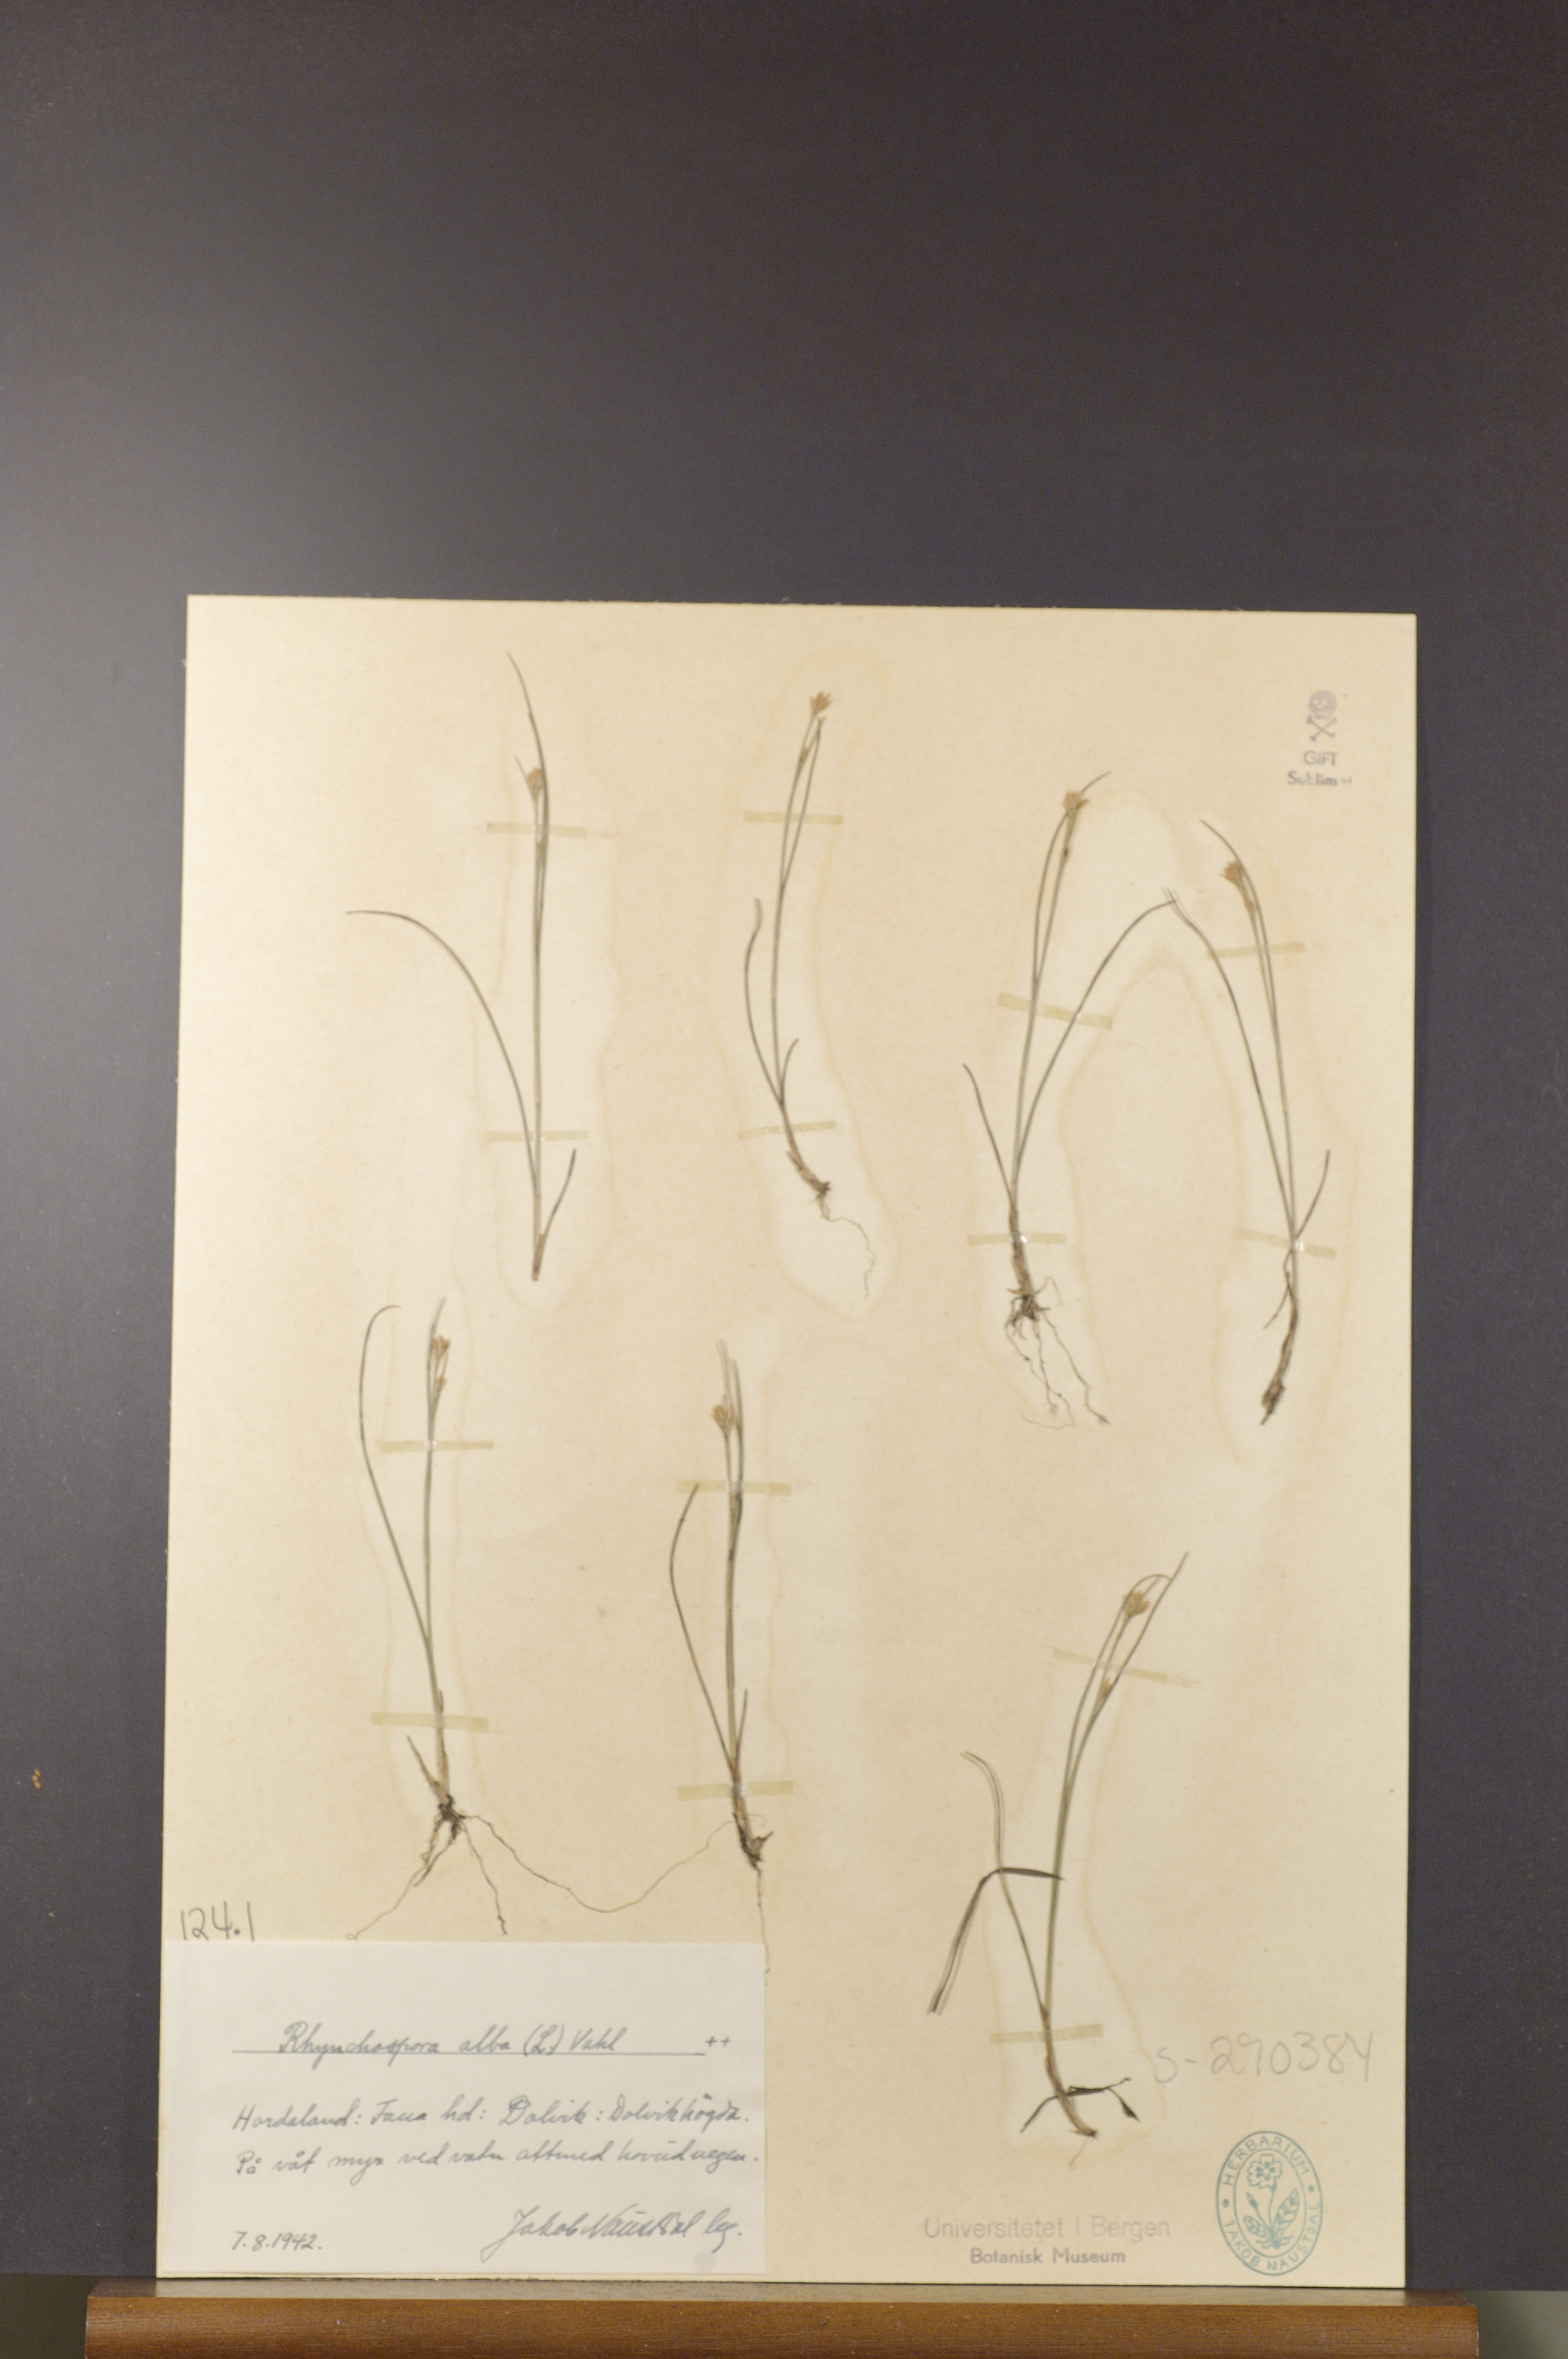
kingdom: Plantae
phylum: Tracheophyta
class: Liliopsida
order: Poales
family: Cyperaceae
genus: Rhynchospora
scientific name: Rhynchospora alba
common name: White beak-sedge
